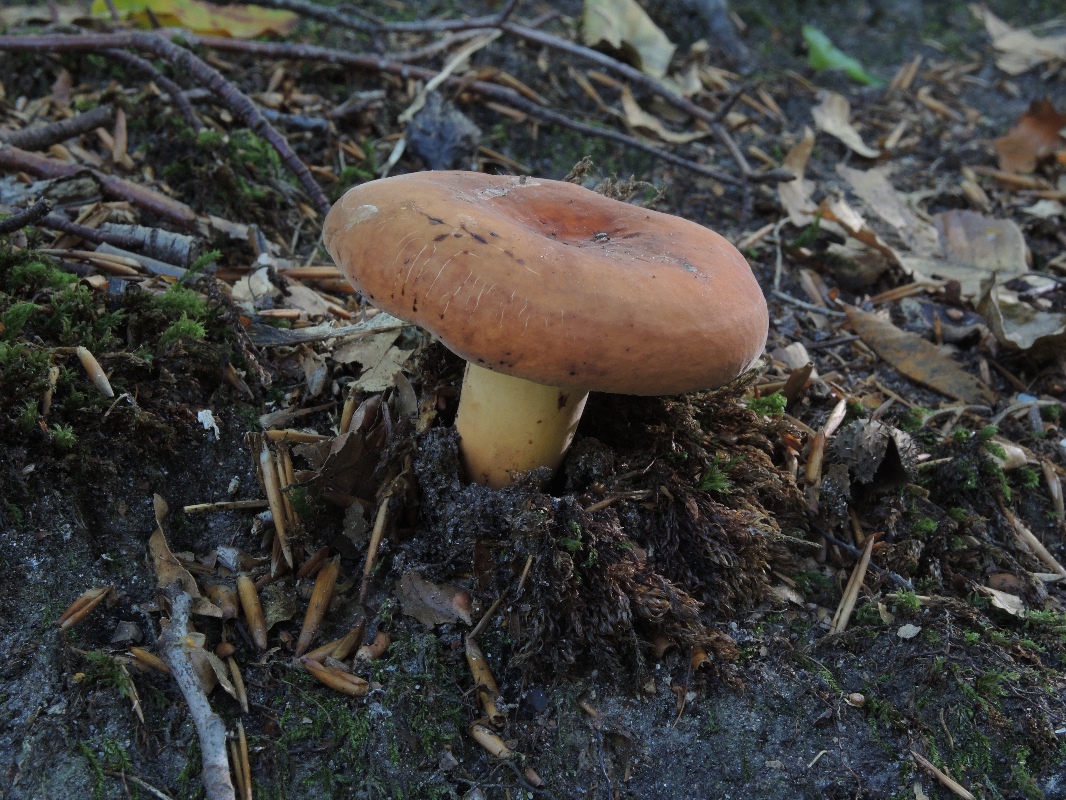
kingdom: Fungi
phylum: Basidiomycota
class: Agaricomycetes
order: Russulales
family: Russulaceae
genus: Lactifluus
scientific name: Lactifluus volemus
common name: spiselig mælkehat
